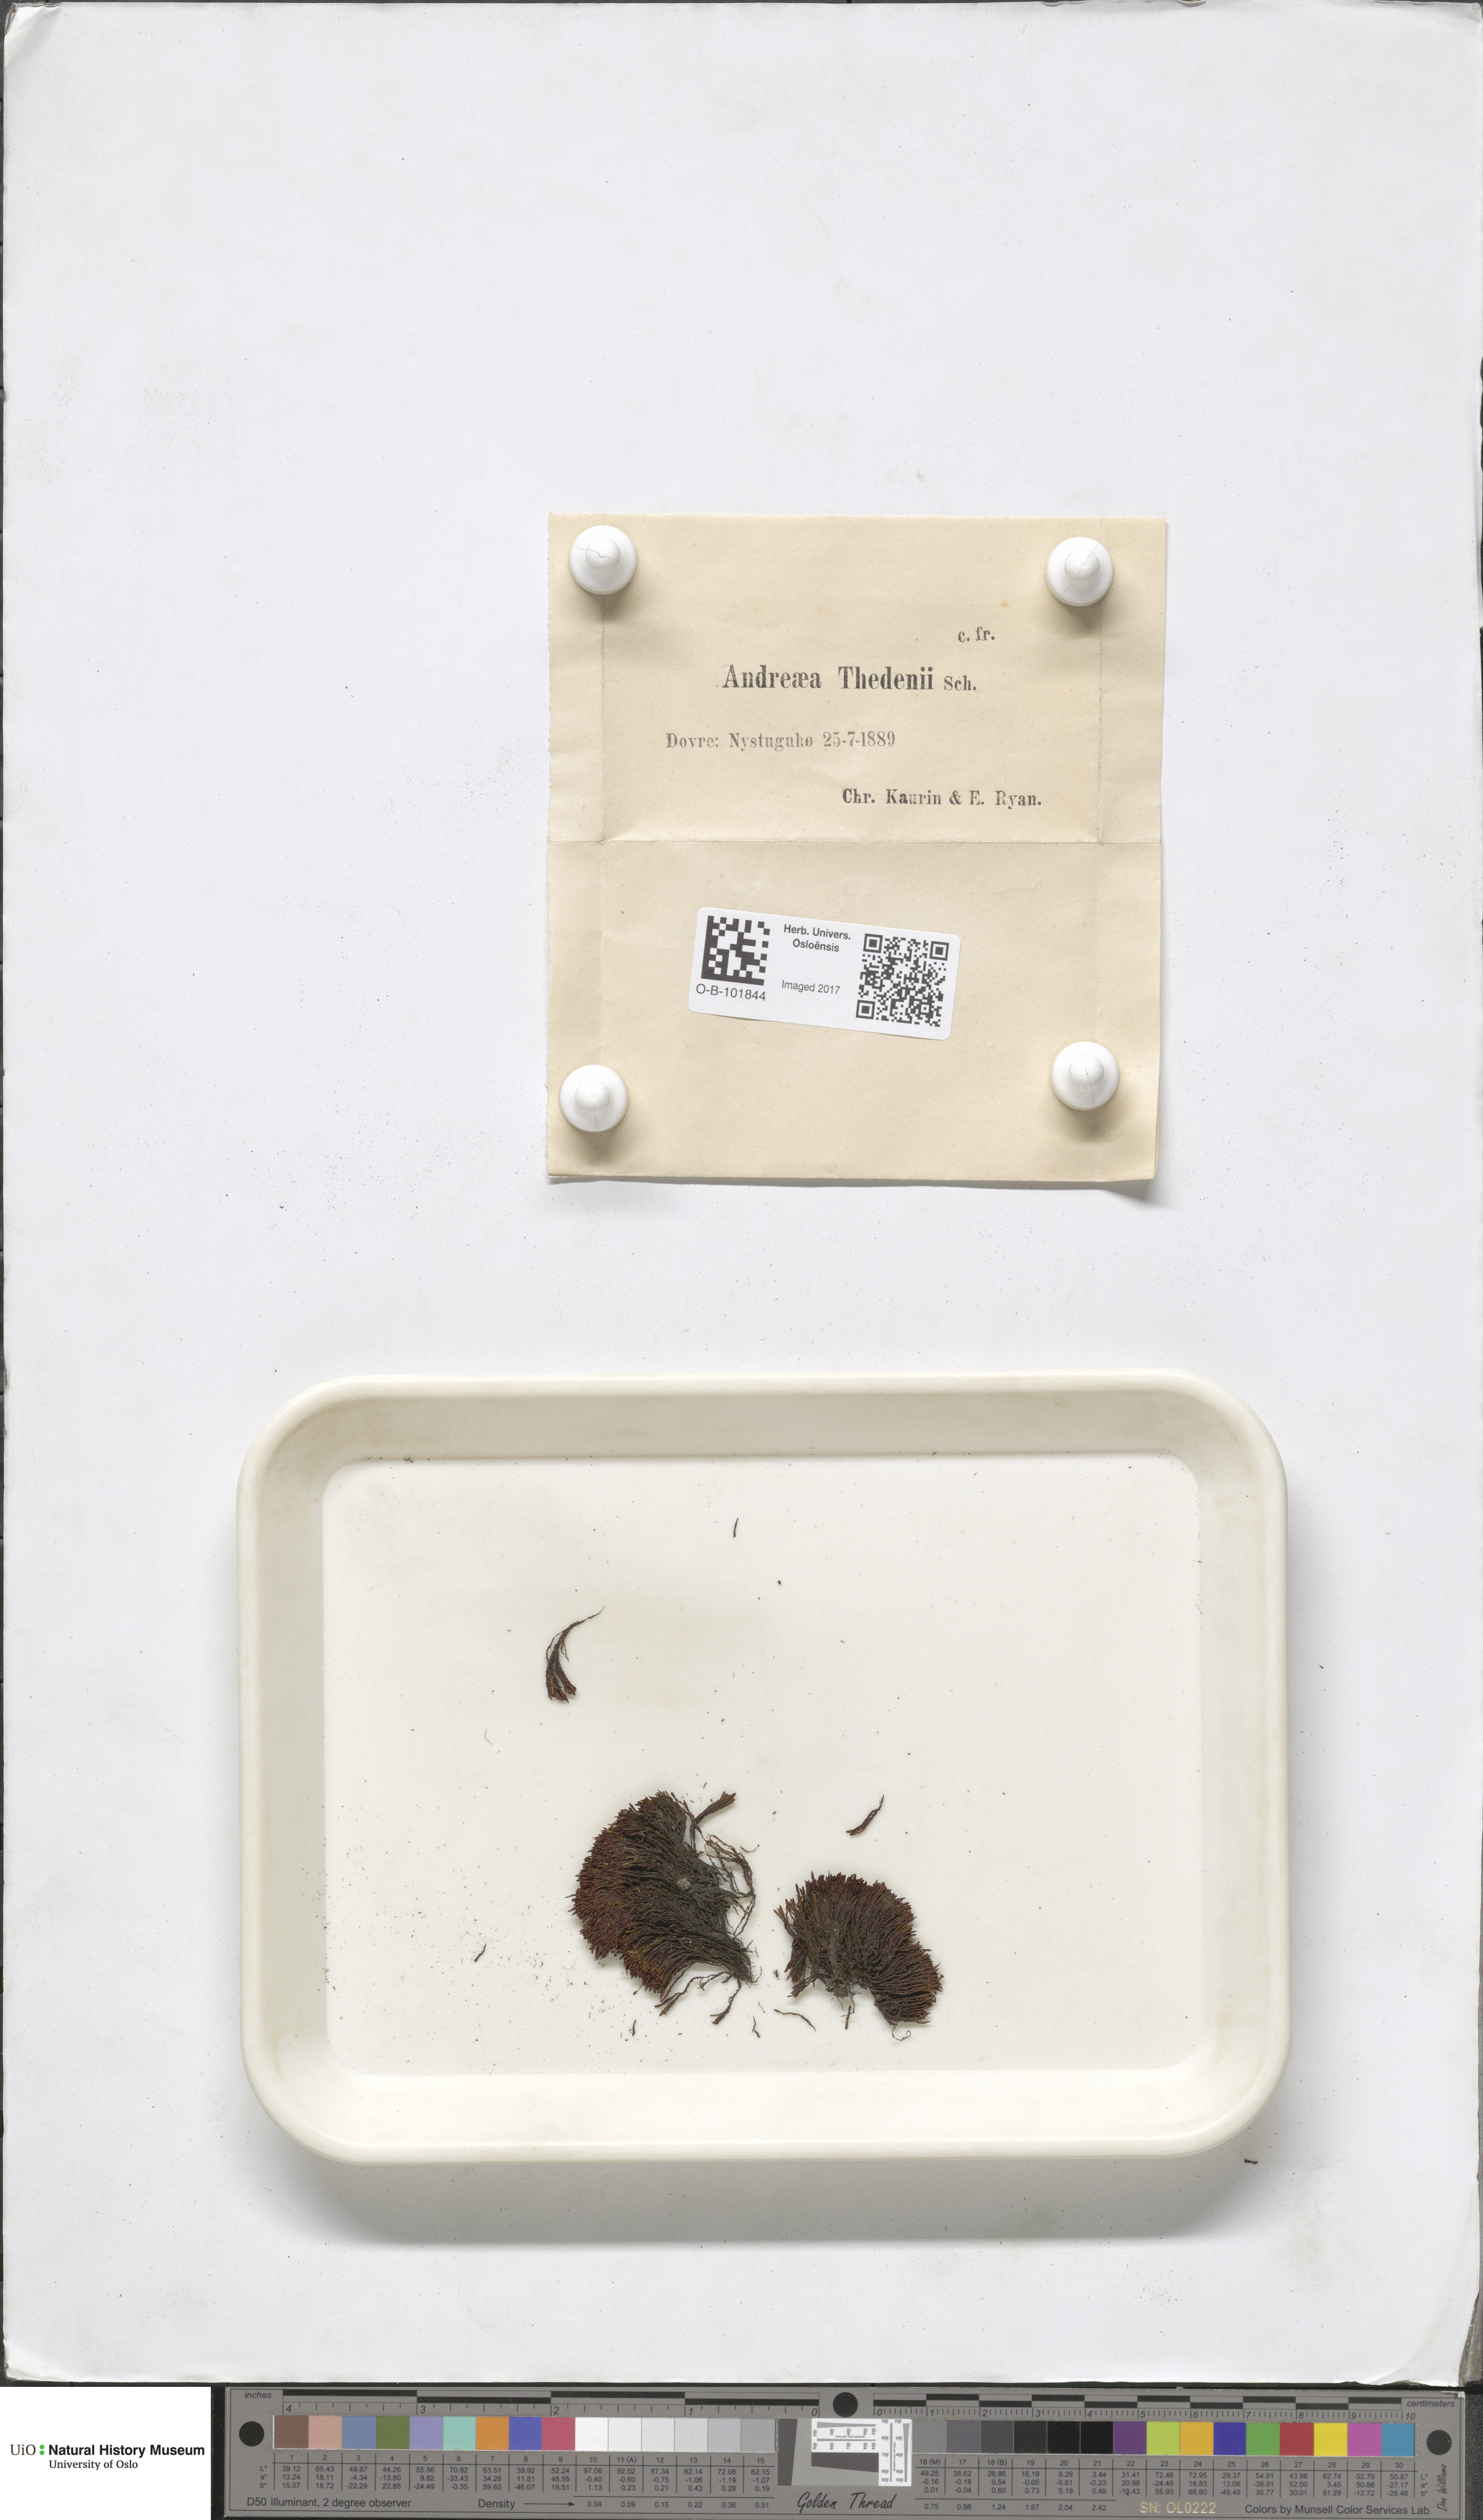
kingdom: Plantae
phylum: Bryophyta
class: Andreaeopsida
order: Andreaeales
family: Andreaeaceae
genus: Andreaea
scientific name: Andreaea hookeri
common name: Alpine rock-moss
